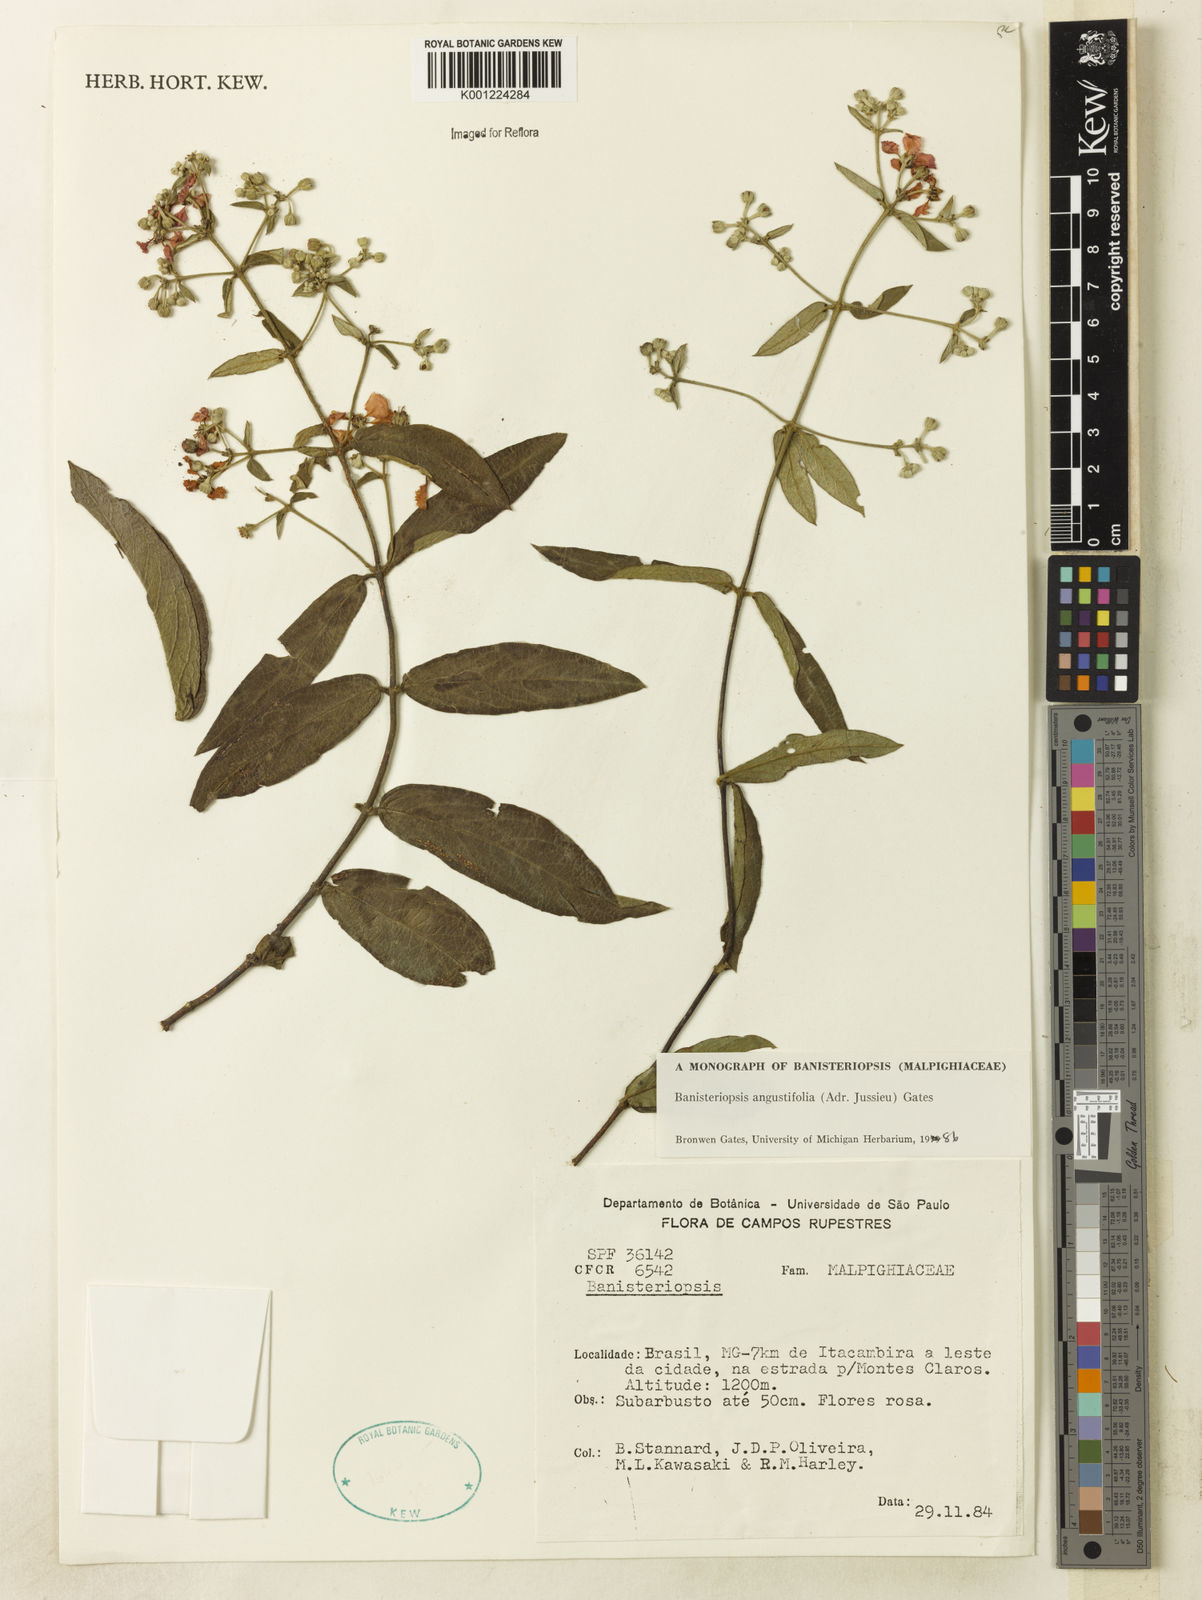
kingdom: Plantae
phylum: Tracheophyta
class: Magnoliopsida
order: Malpighiales
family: Malpighiaceae
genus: Banisteriopsis
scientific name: Banisteriopsis angustifolia
